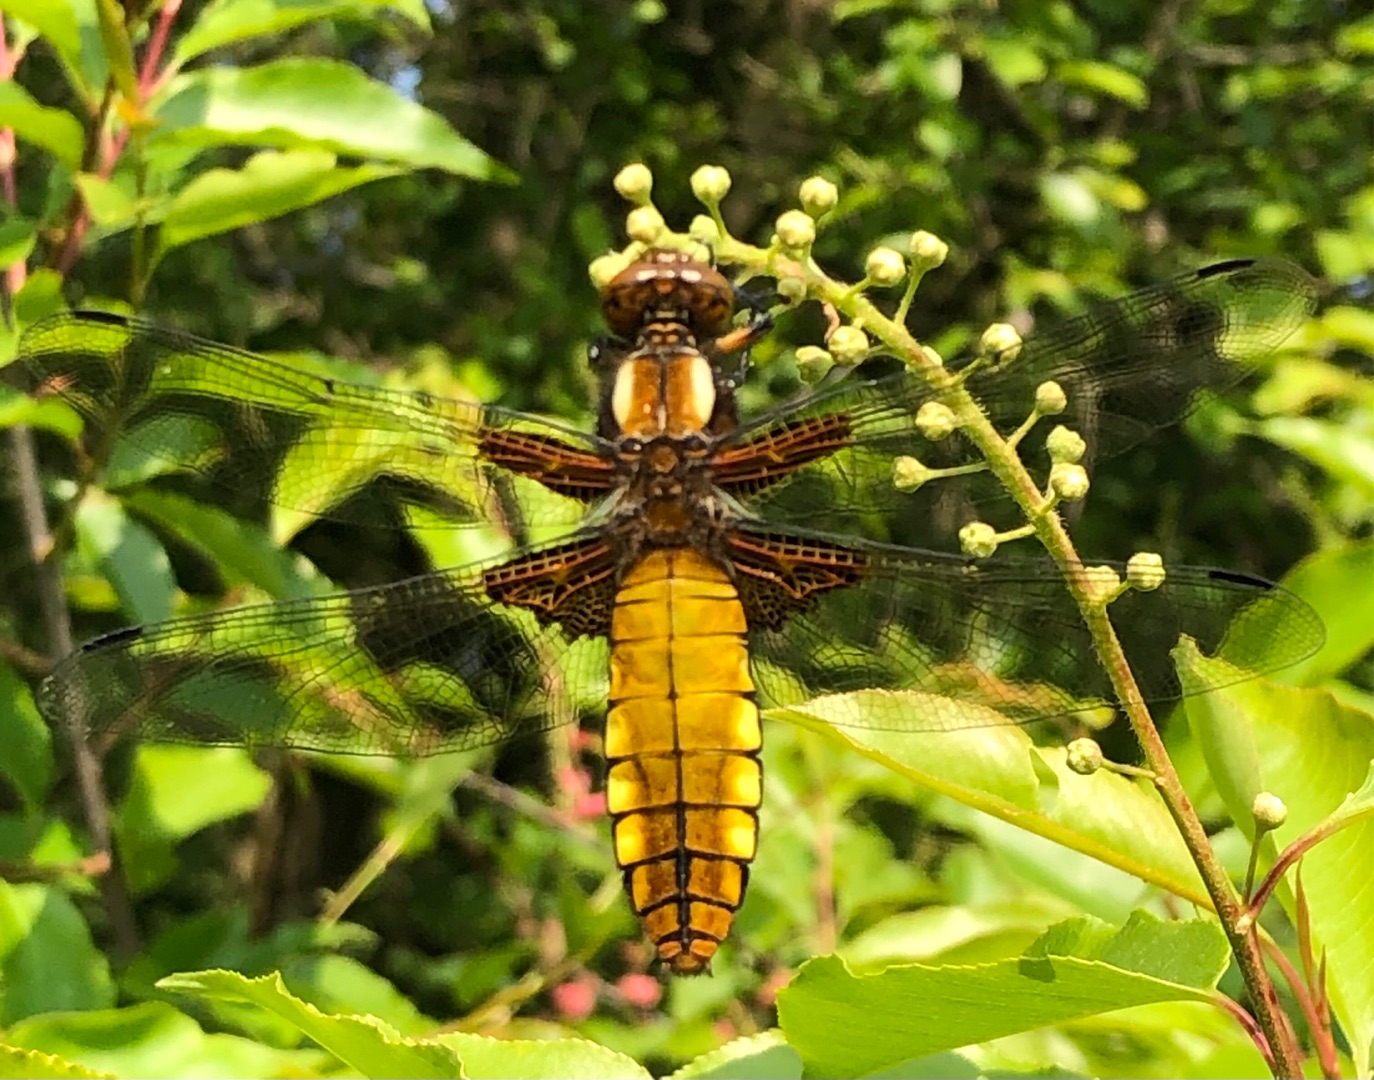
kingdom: Animalia
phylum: Arthropoda
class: Insecta
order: Odonata
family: Libellulidae
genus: Libellula
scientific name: Libellula depressa
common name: Blå libel
